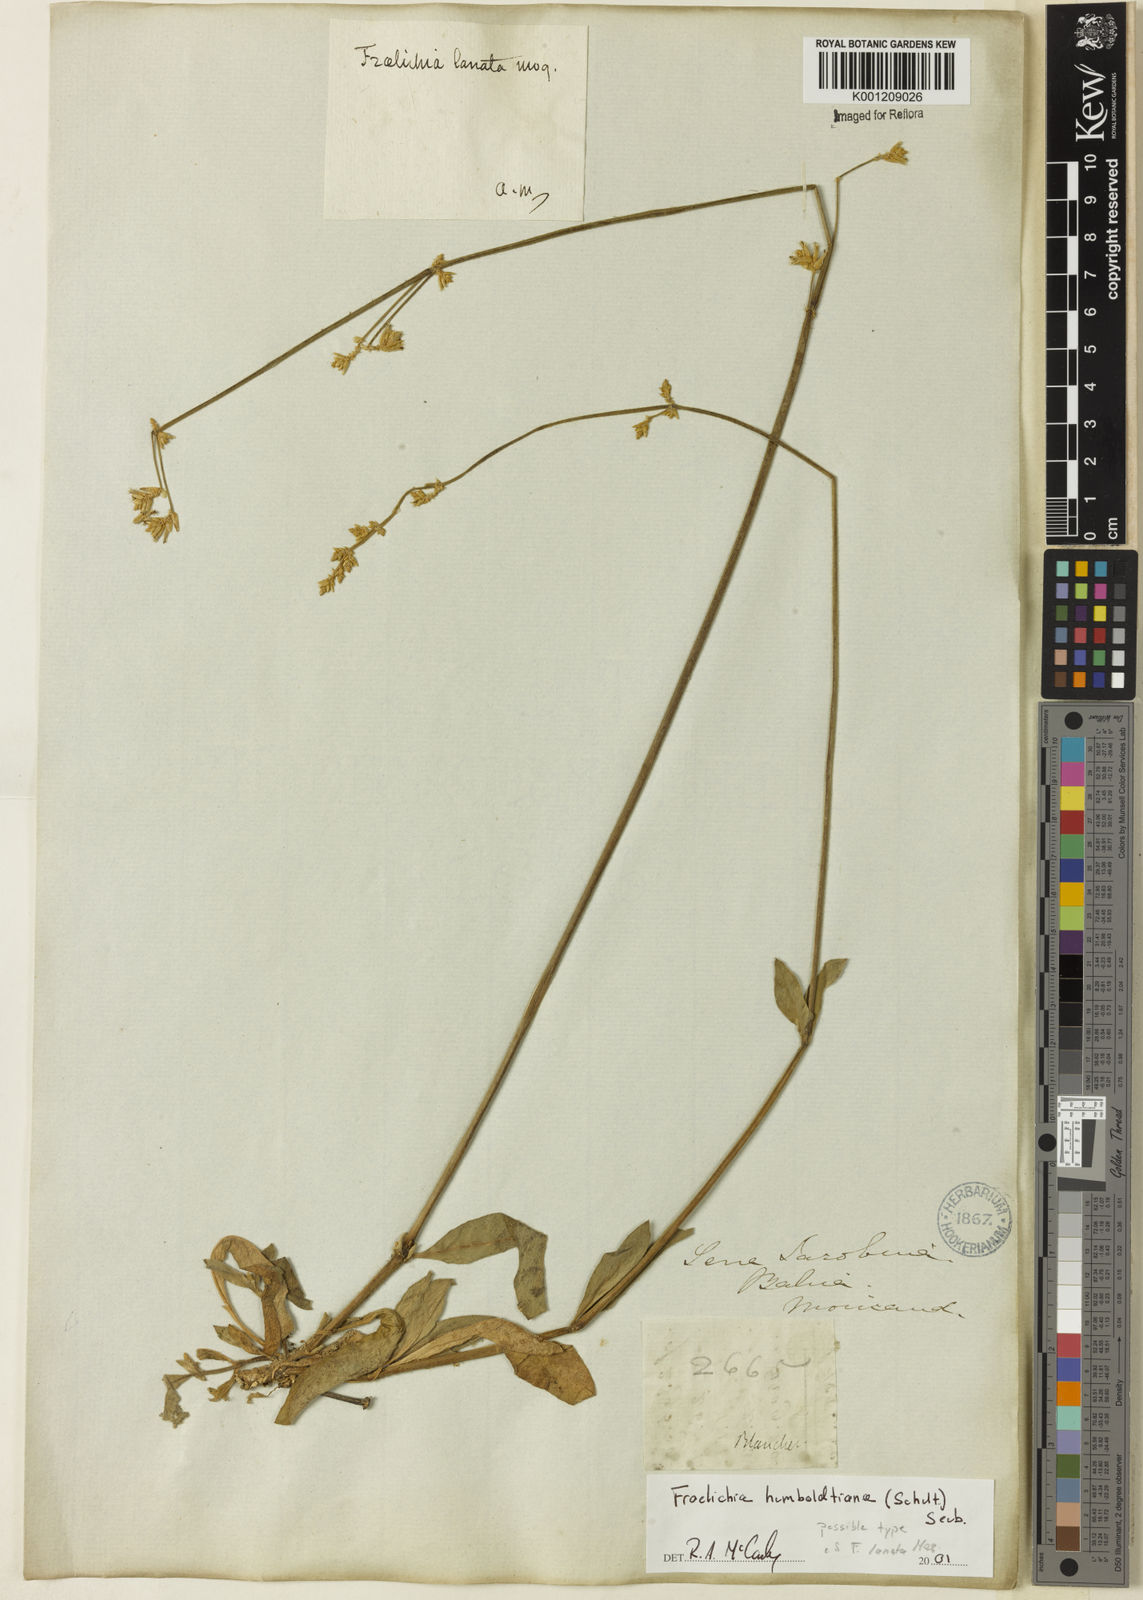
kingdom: Plantae
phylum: Tracheophyta
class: Magnoliopsida
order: Caryophyllales
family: Amaranthaceae
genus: Froelichia
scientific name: Froelichia humboldtiana
